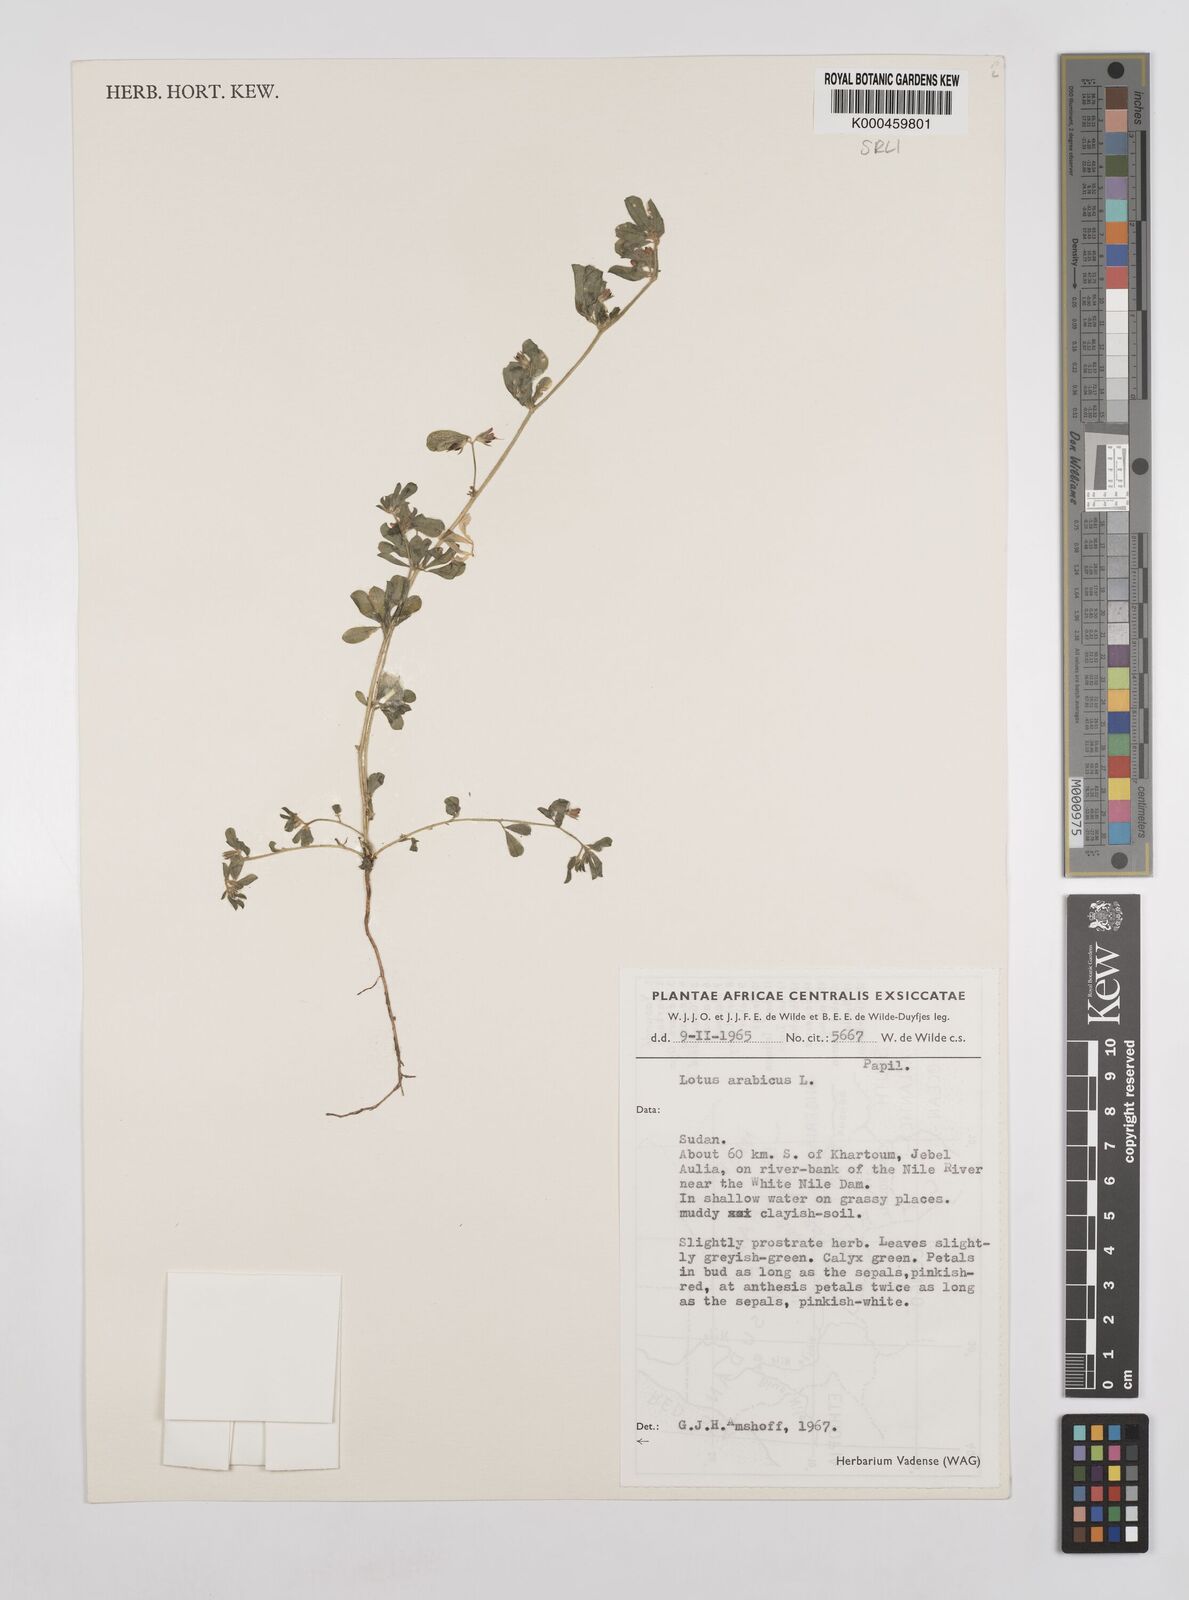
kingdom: Plantae
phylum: Tracheophyta
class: Magnoliopsida
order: Fabales
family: Fabaceae
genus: Lotus
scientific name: Lotus arabicus
